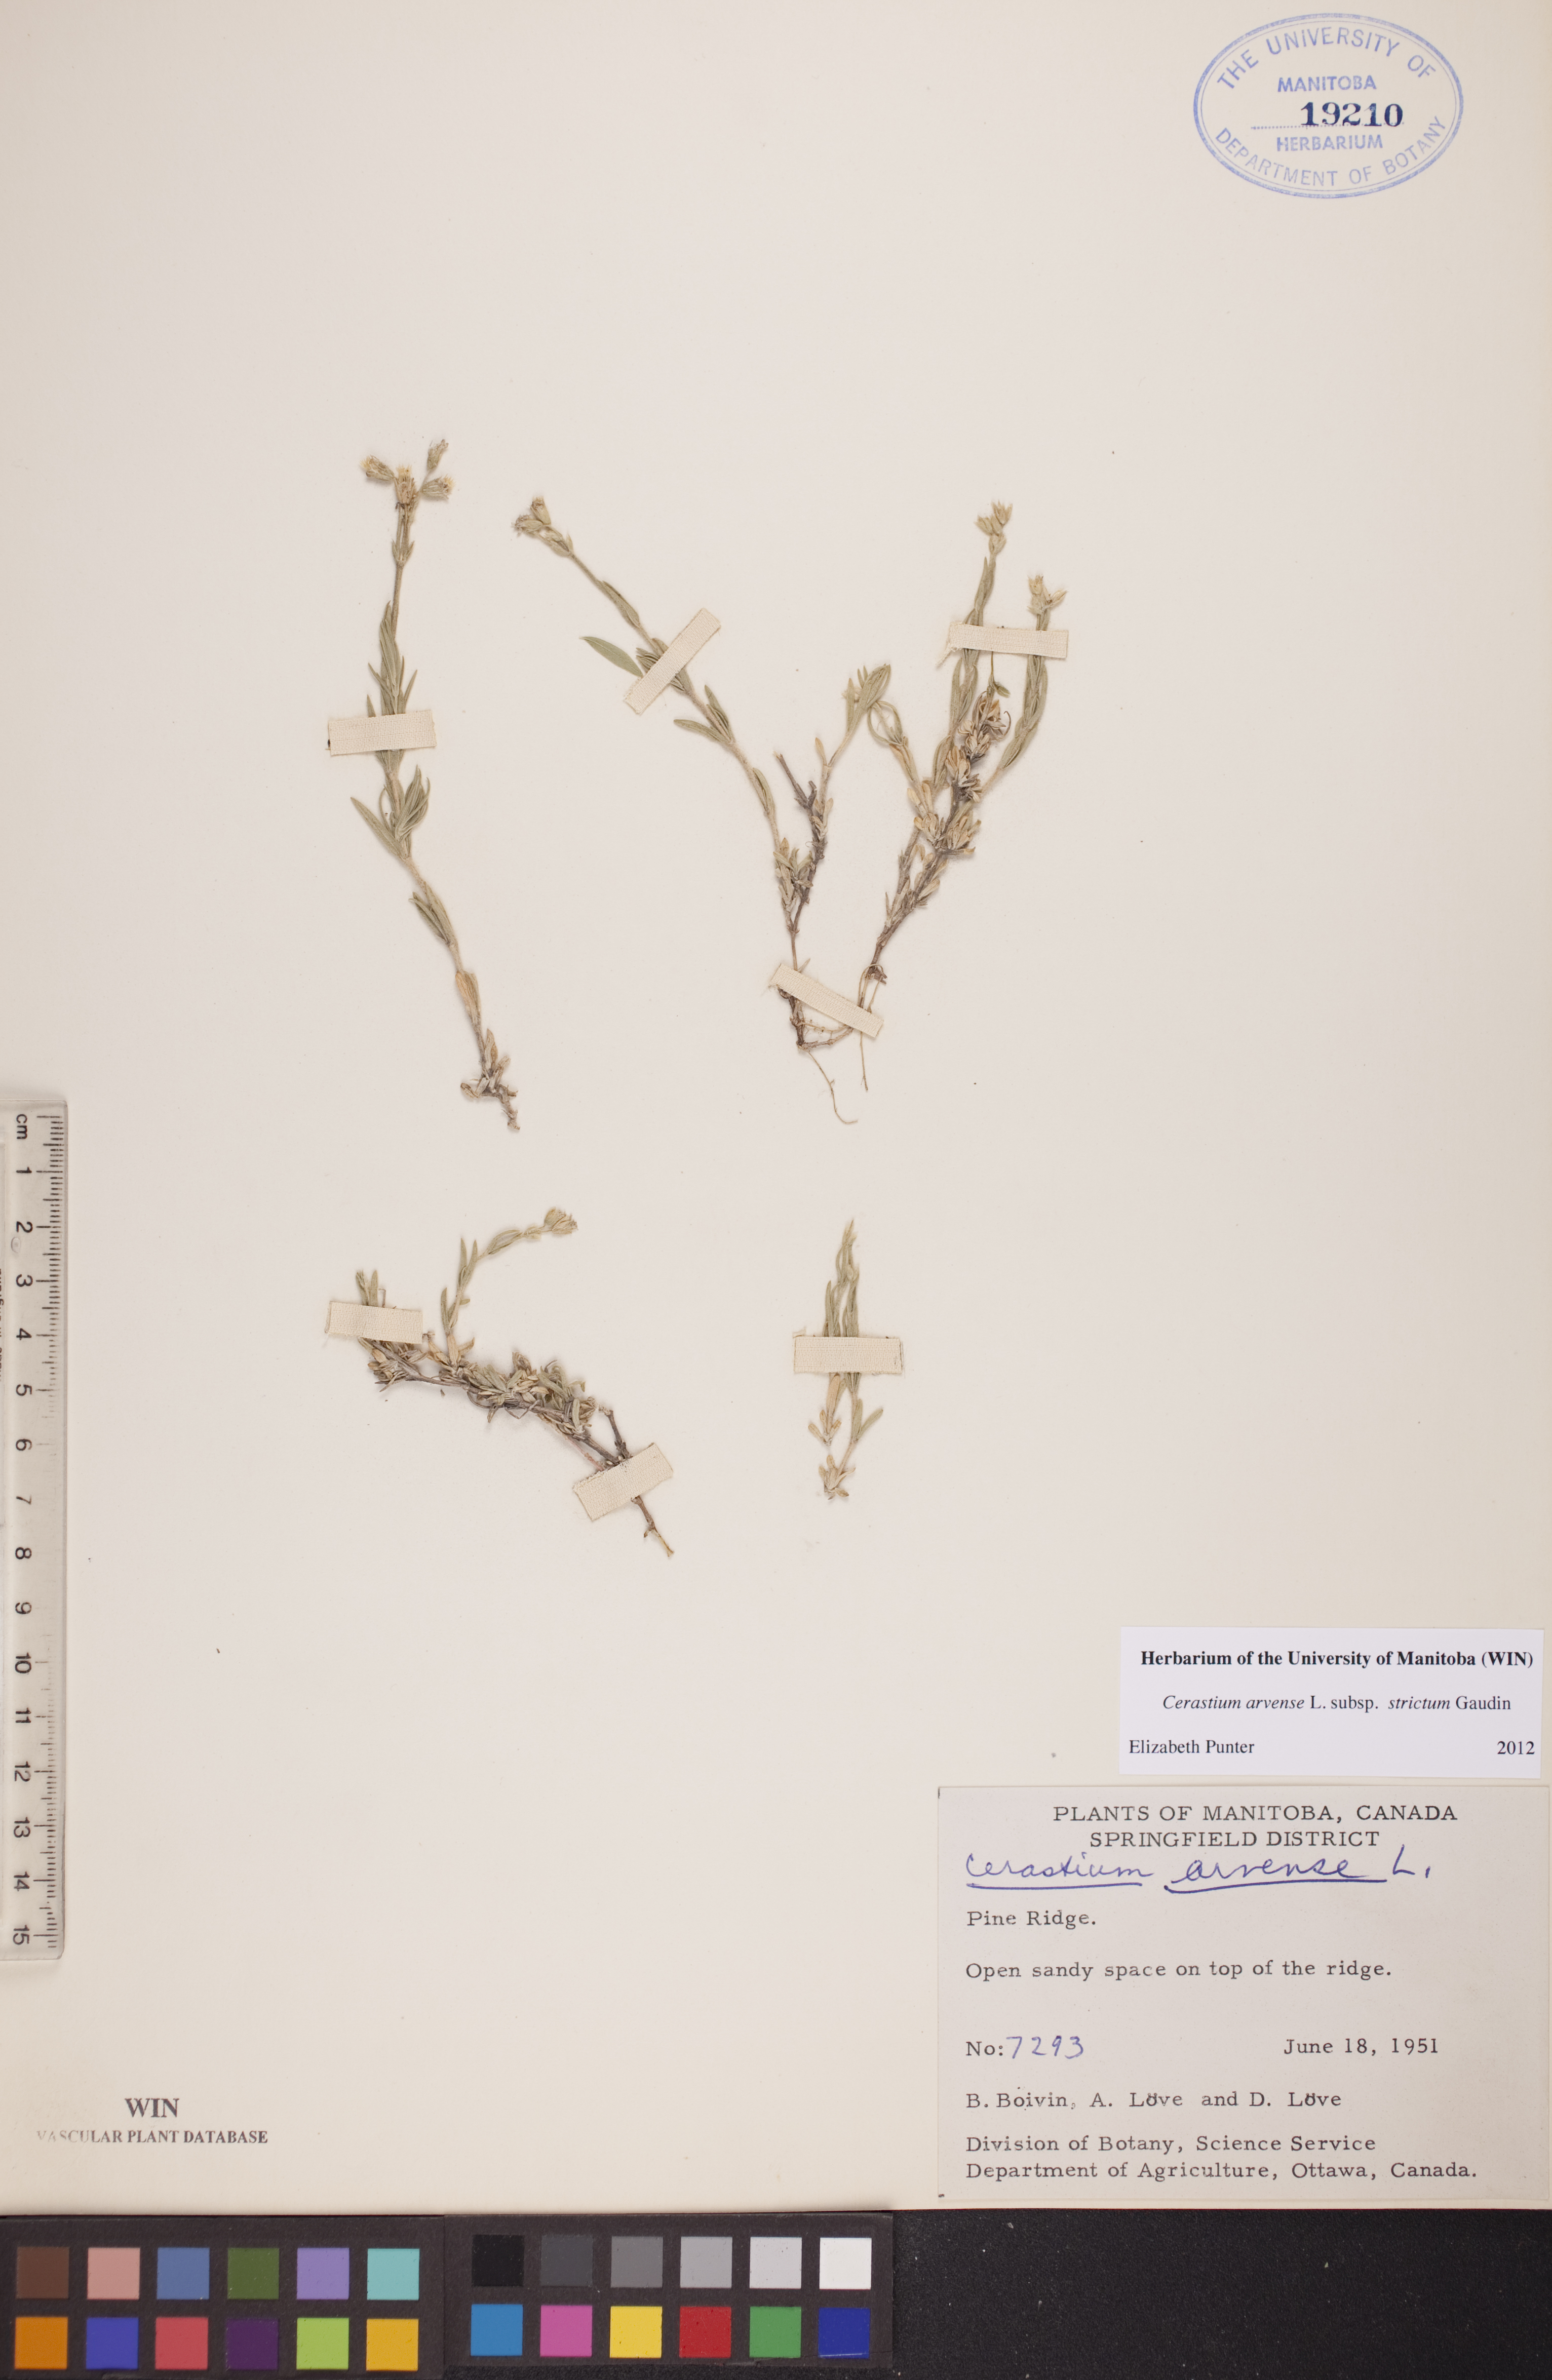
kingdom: Plantae
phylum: Tracheophyta
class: Magnoliopsida
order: Caryophyllales
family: Caryophyllaceae
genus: Cerastium
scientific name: Cerastium elongatum
